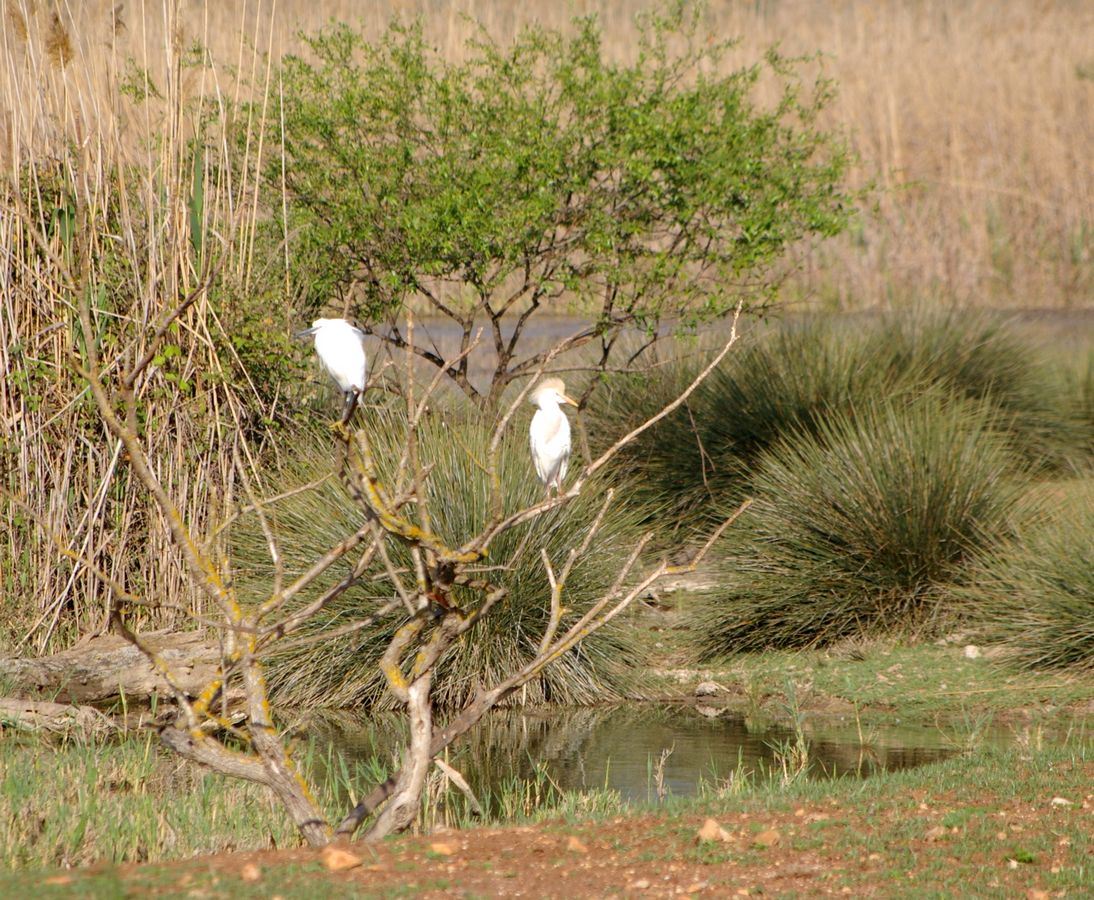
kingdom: Animalia
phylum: Chordata
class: Aves
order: Pelecaniformes
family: Ardeidae
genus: Egretta
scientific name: Egretta garzetta
